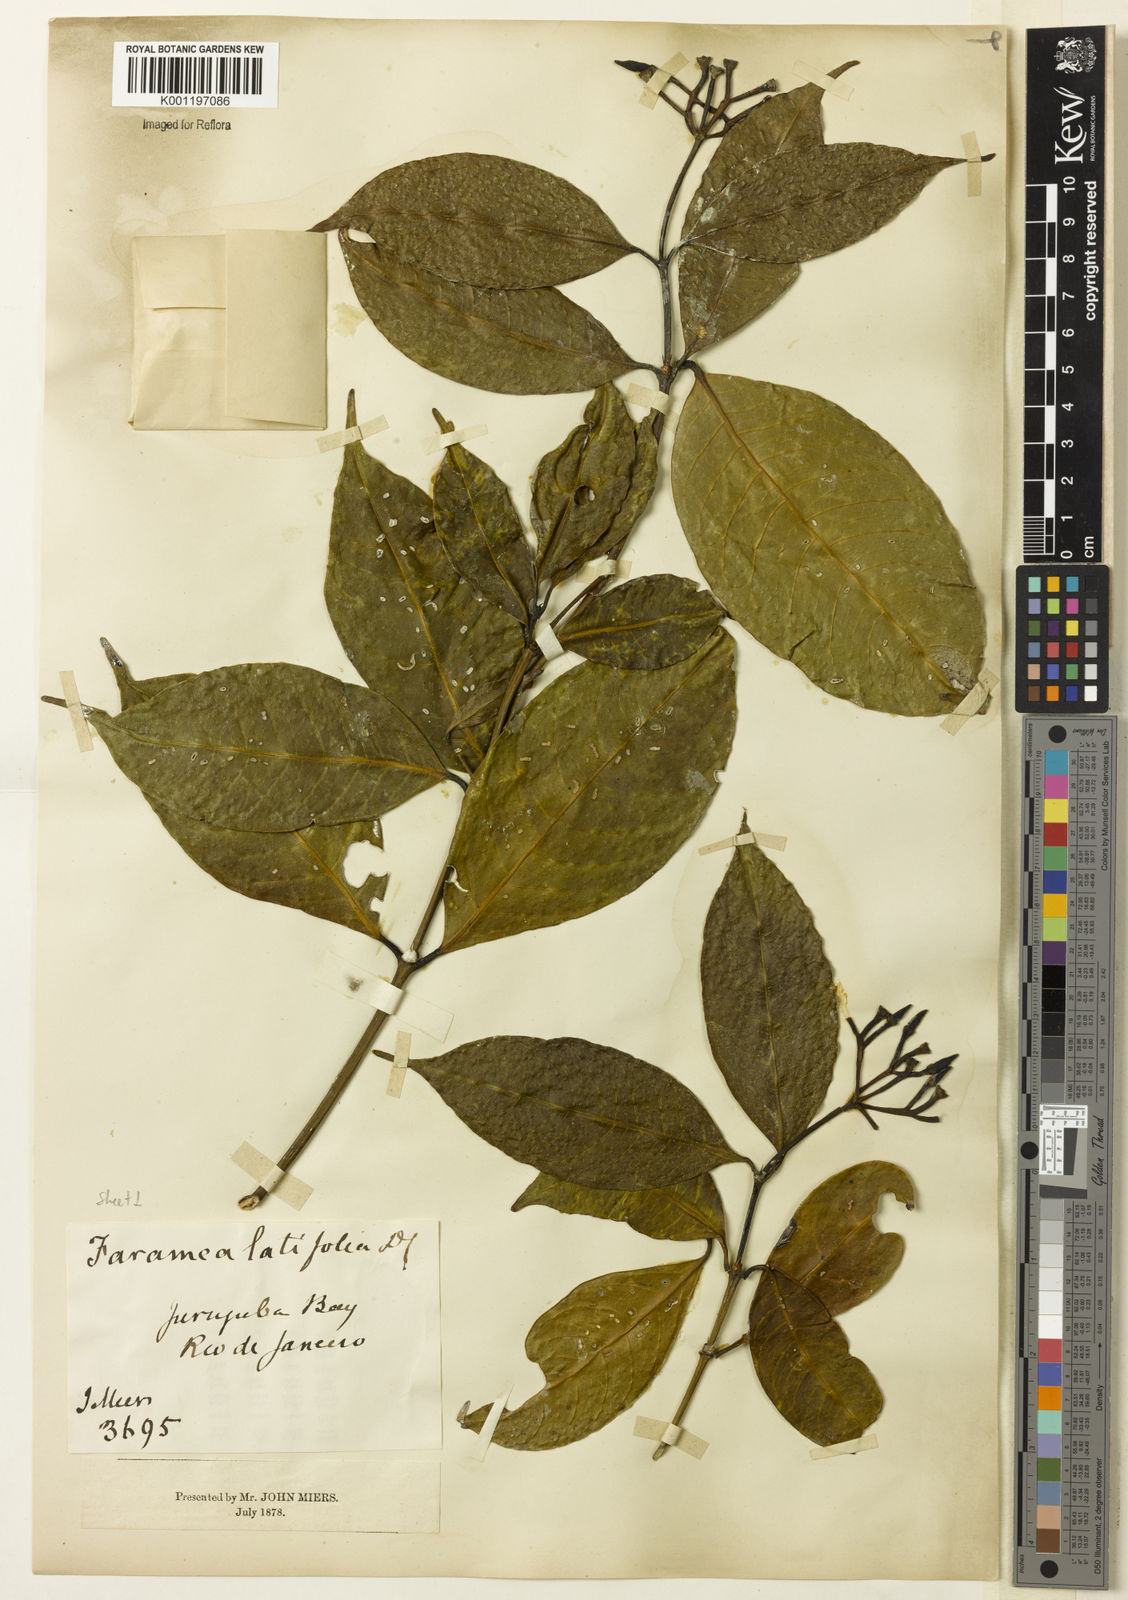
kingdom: Plantae
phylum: Tracheophyta
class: Magnoliopsida
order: Gentianales
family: Rubiaceae
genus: Faramea
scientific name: Faramea latifolia
